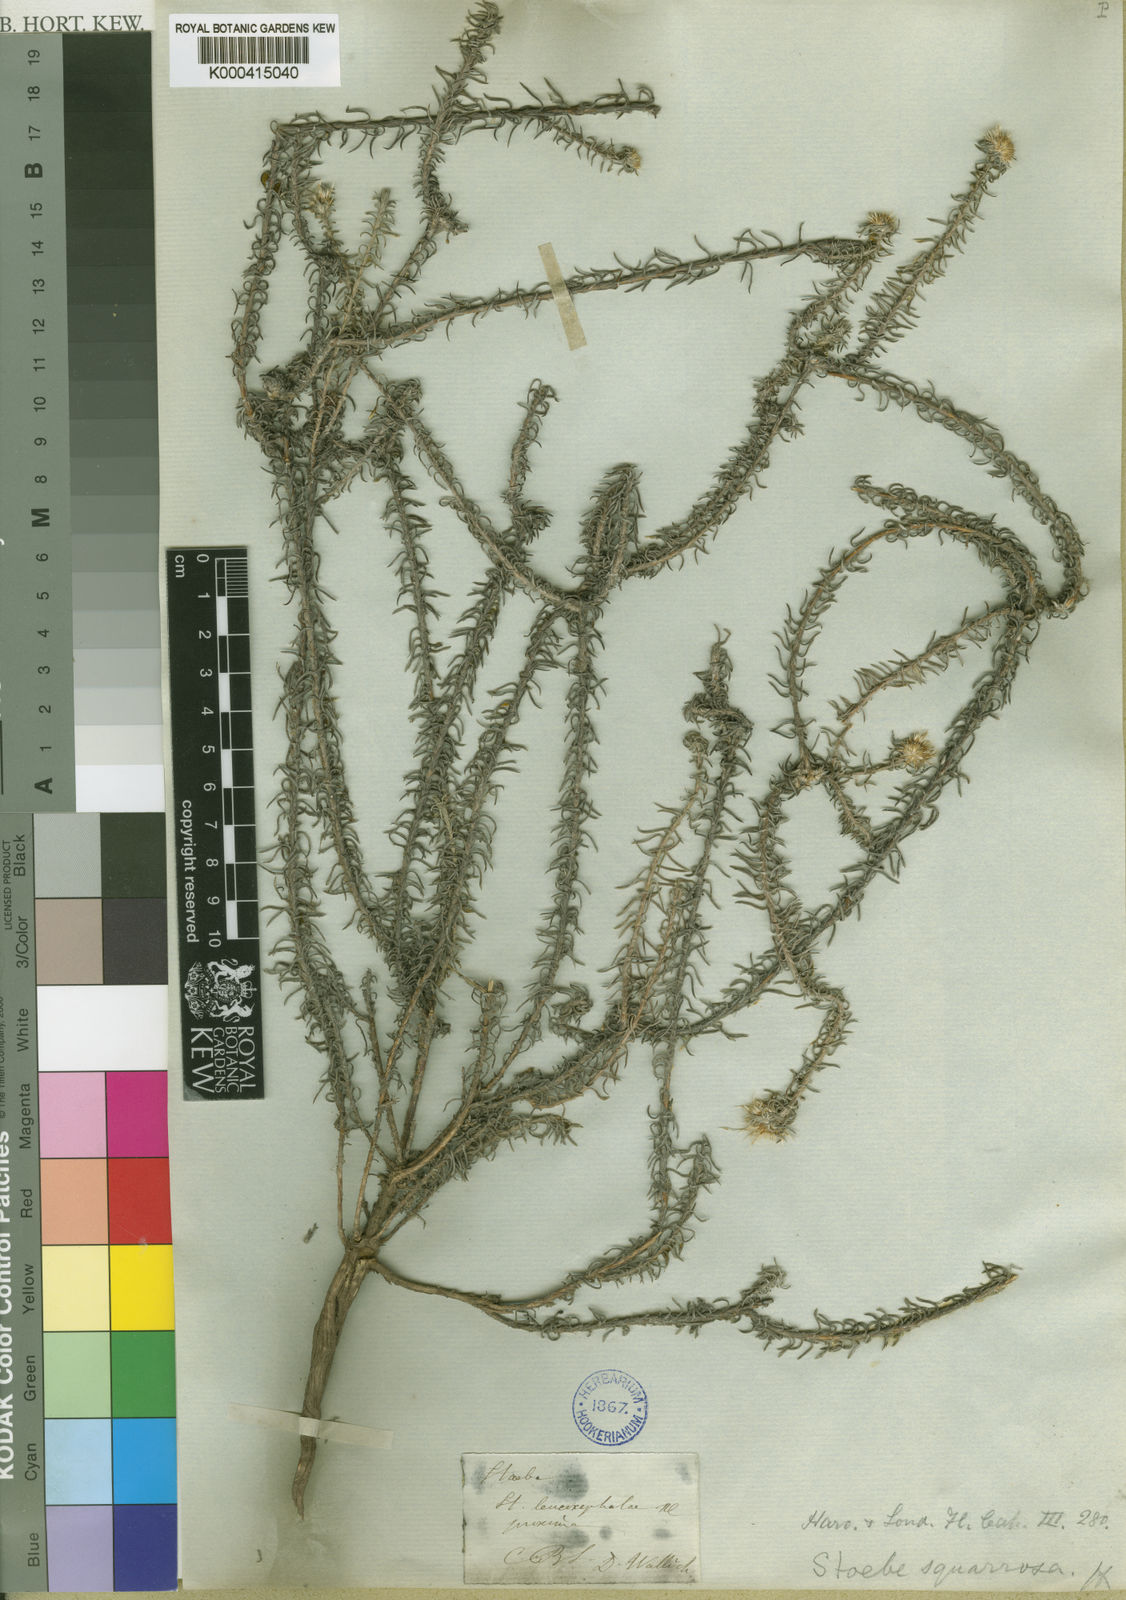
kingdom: Plantae
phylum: Tracheophyta
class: Magnoliopsida
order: Asterales
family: Asteraceae
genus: Stoebe
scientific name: Stoebe microphylla
